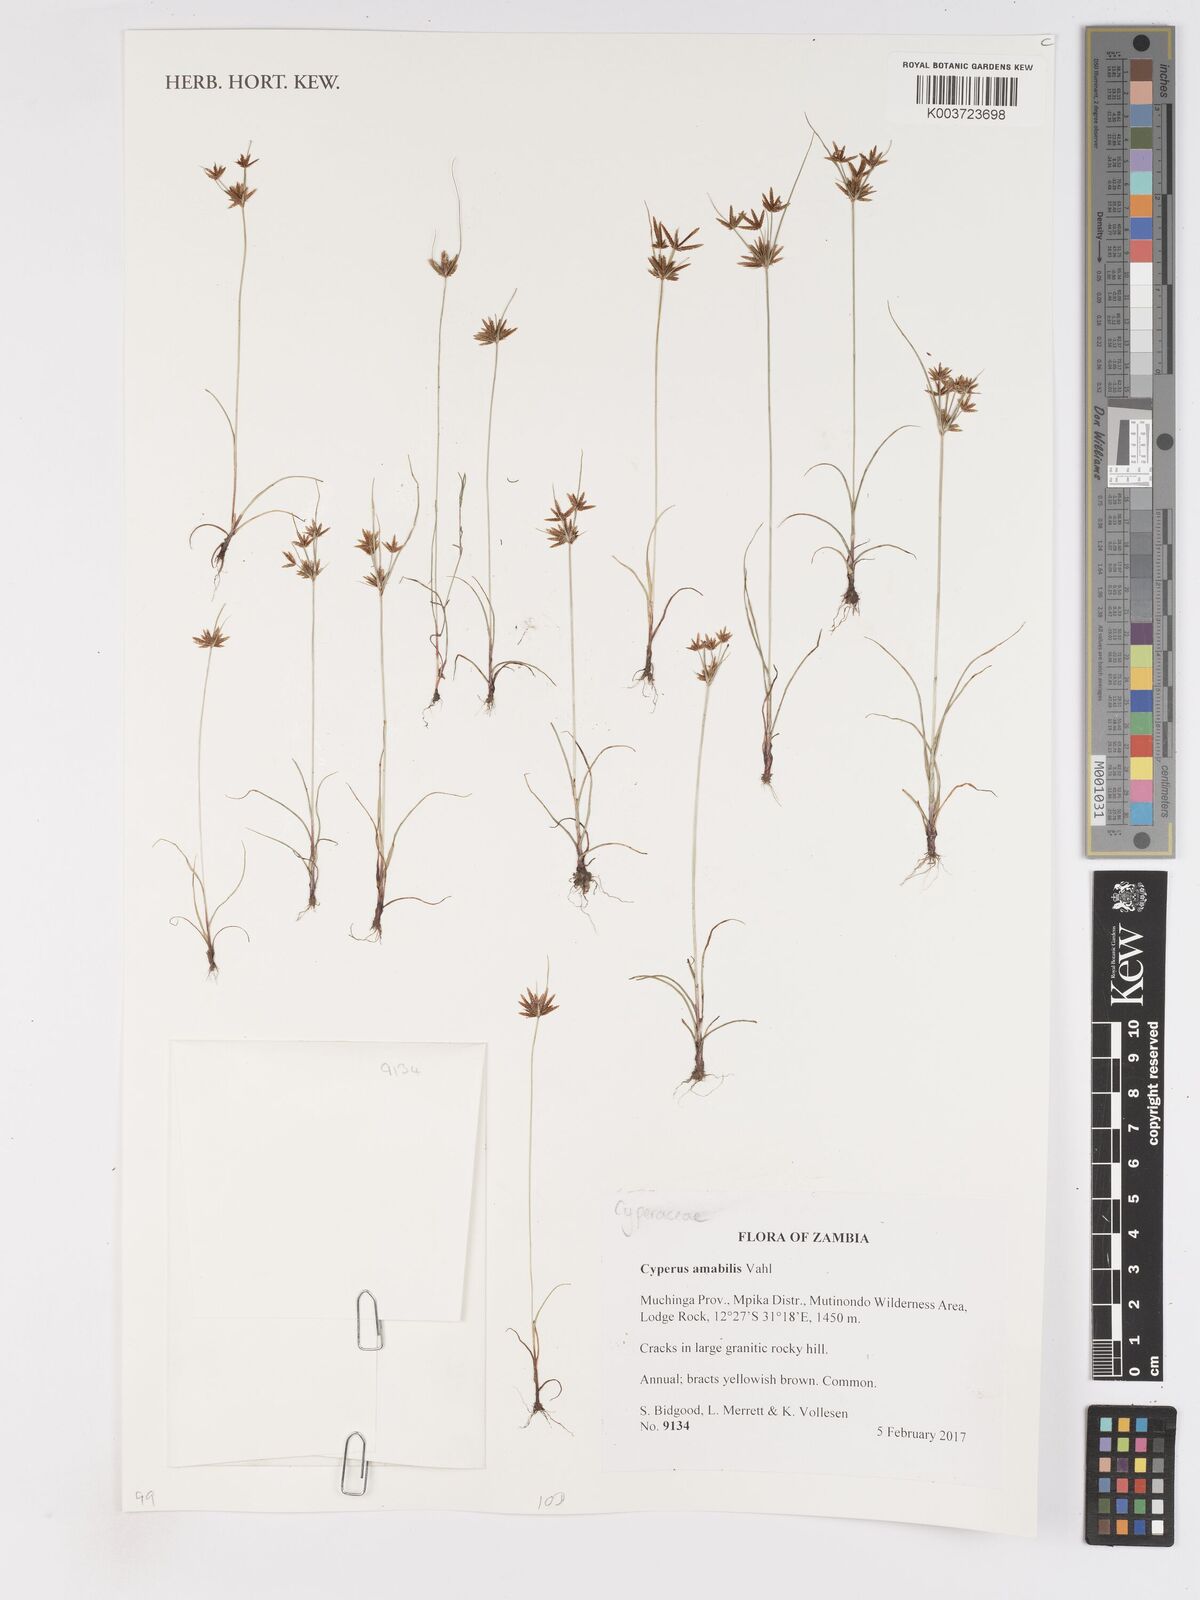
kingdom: Plantae
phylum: Tracheophyta
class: Liliopsida
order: Poales
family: Cyperaceae
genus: Cyperus
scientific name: Cyperus amabilis
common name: Foothill flat sedge
